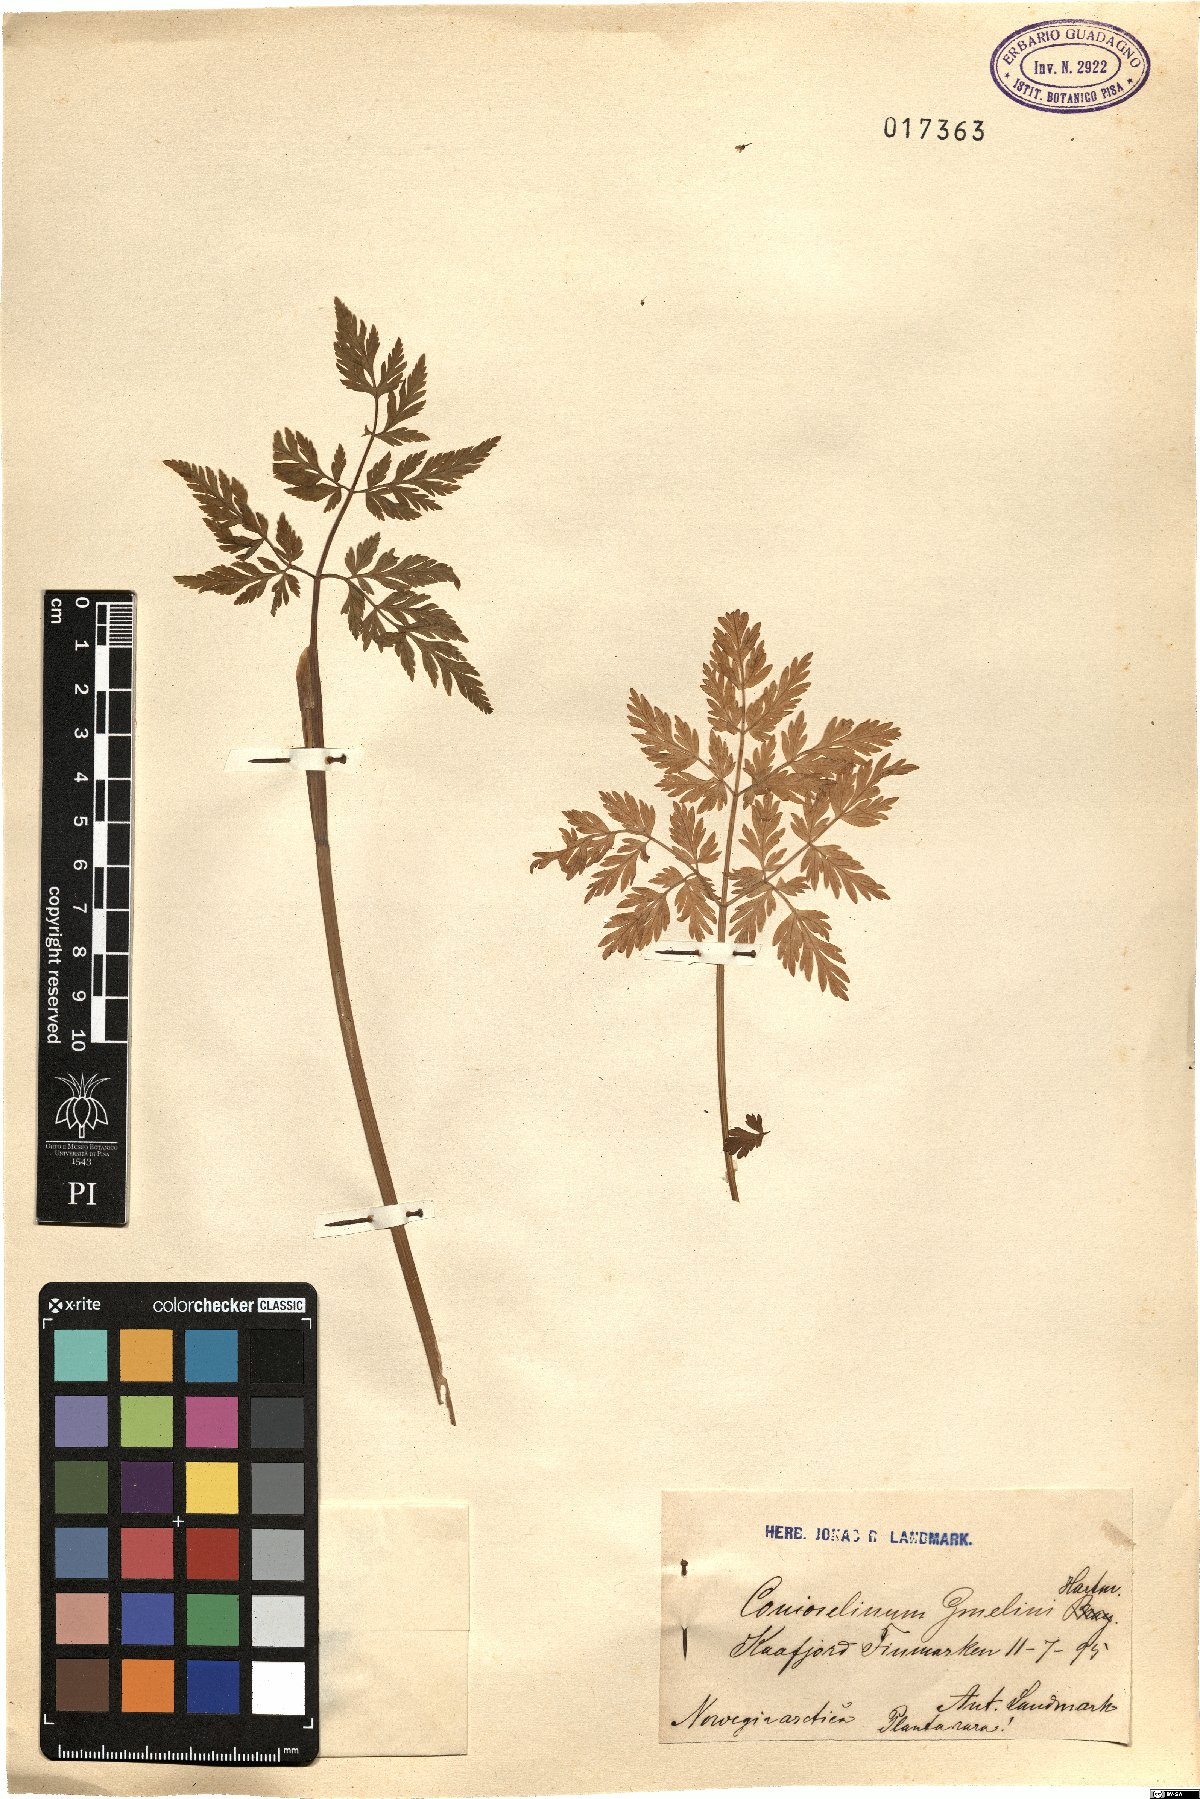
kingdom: Plantae
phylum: Tracheophyta
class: Magnoliopsida
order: Apiales
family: Apiaceae
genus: Conioselinum
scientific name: Conioselinum tataricum
